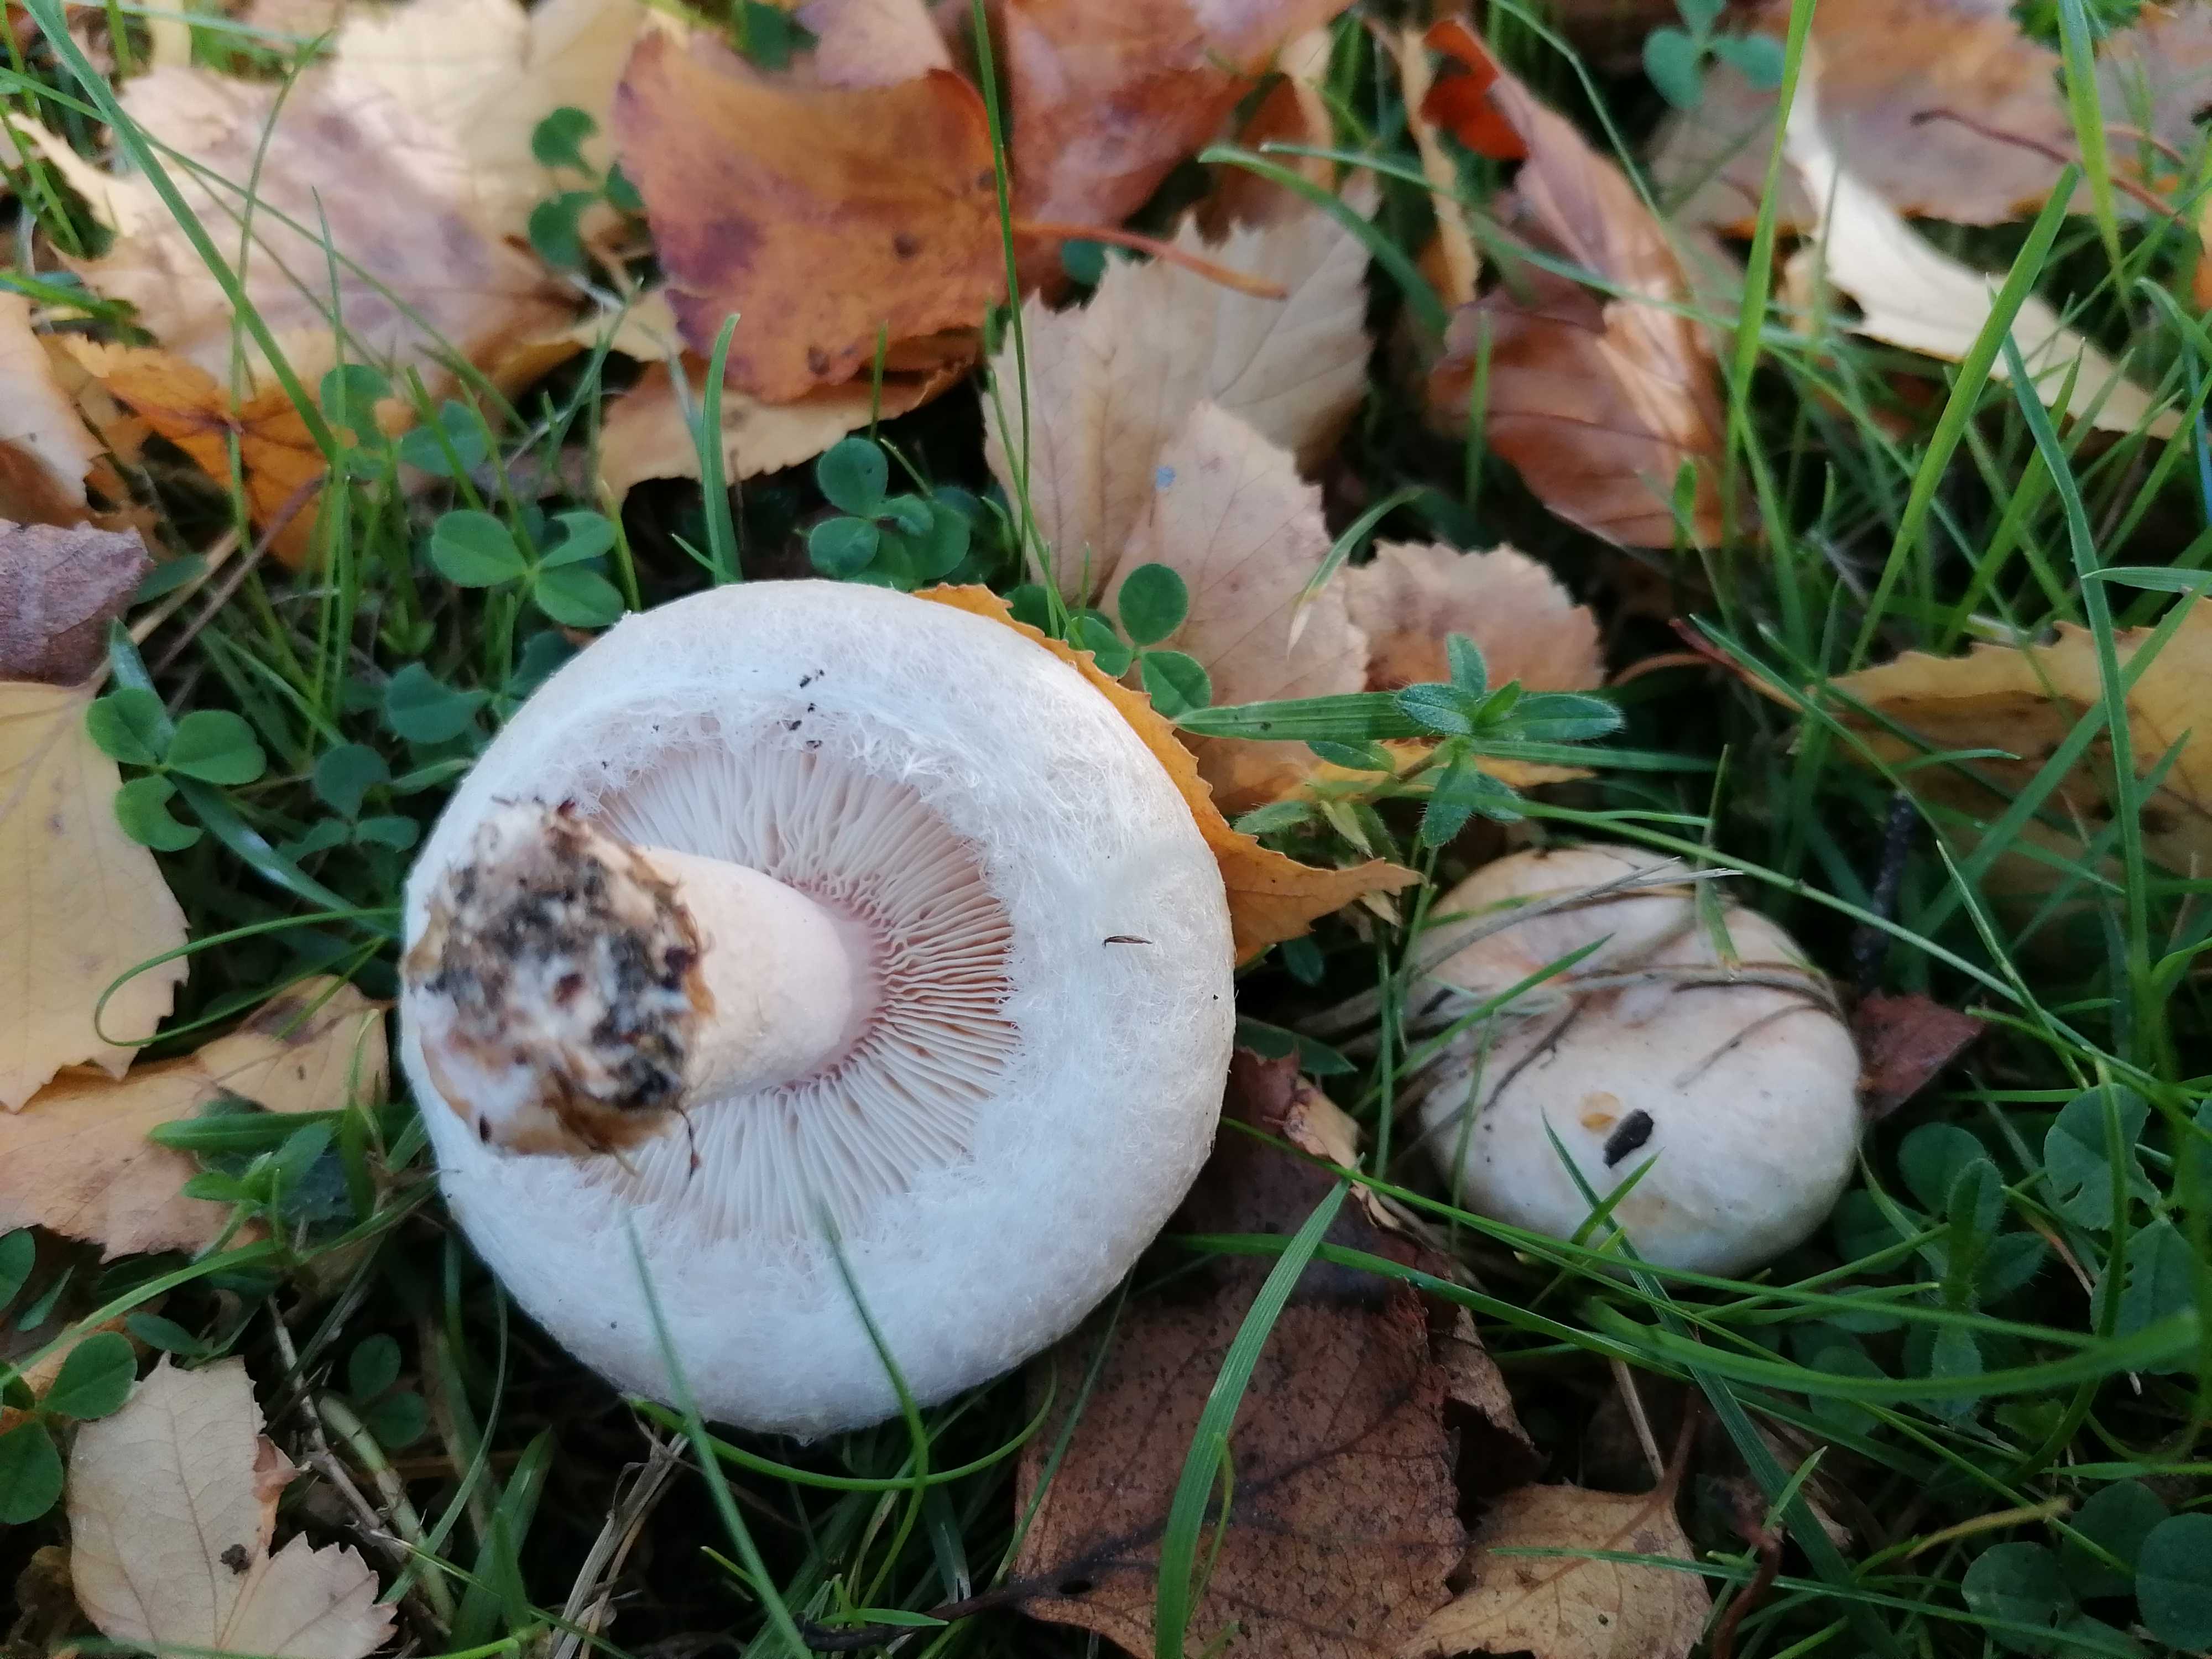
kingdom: Fungi
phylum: Basidiomycota
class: Agaricomycetes
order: Russulales
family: Russulaceae
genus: Lactarius
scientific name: Lactarius pubescens
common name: dunet mælkehat
